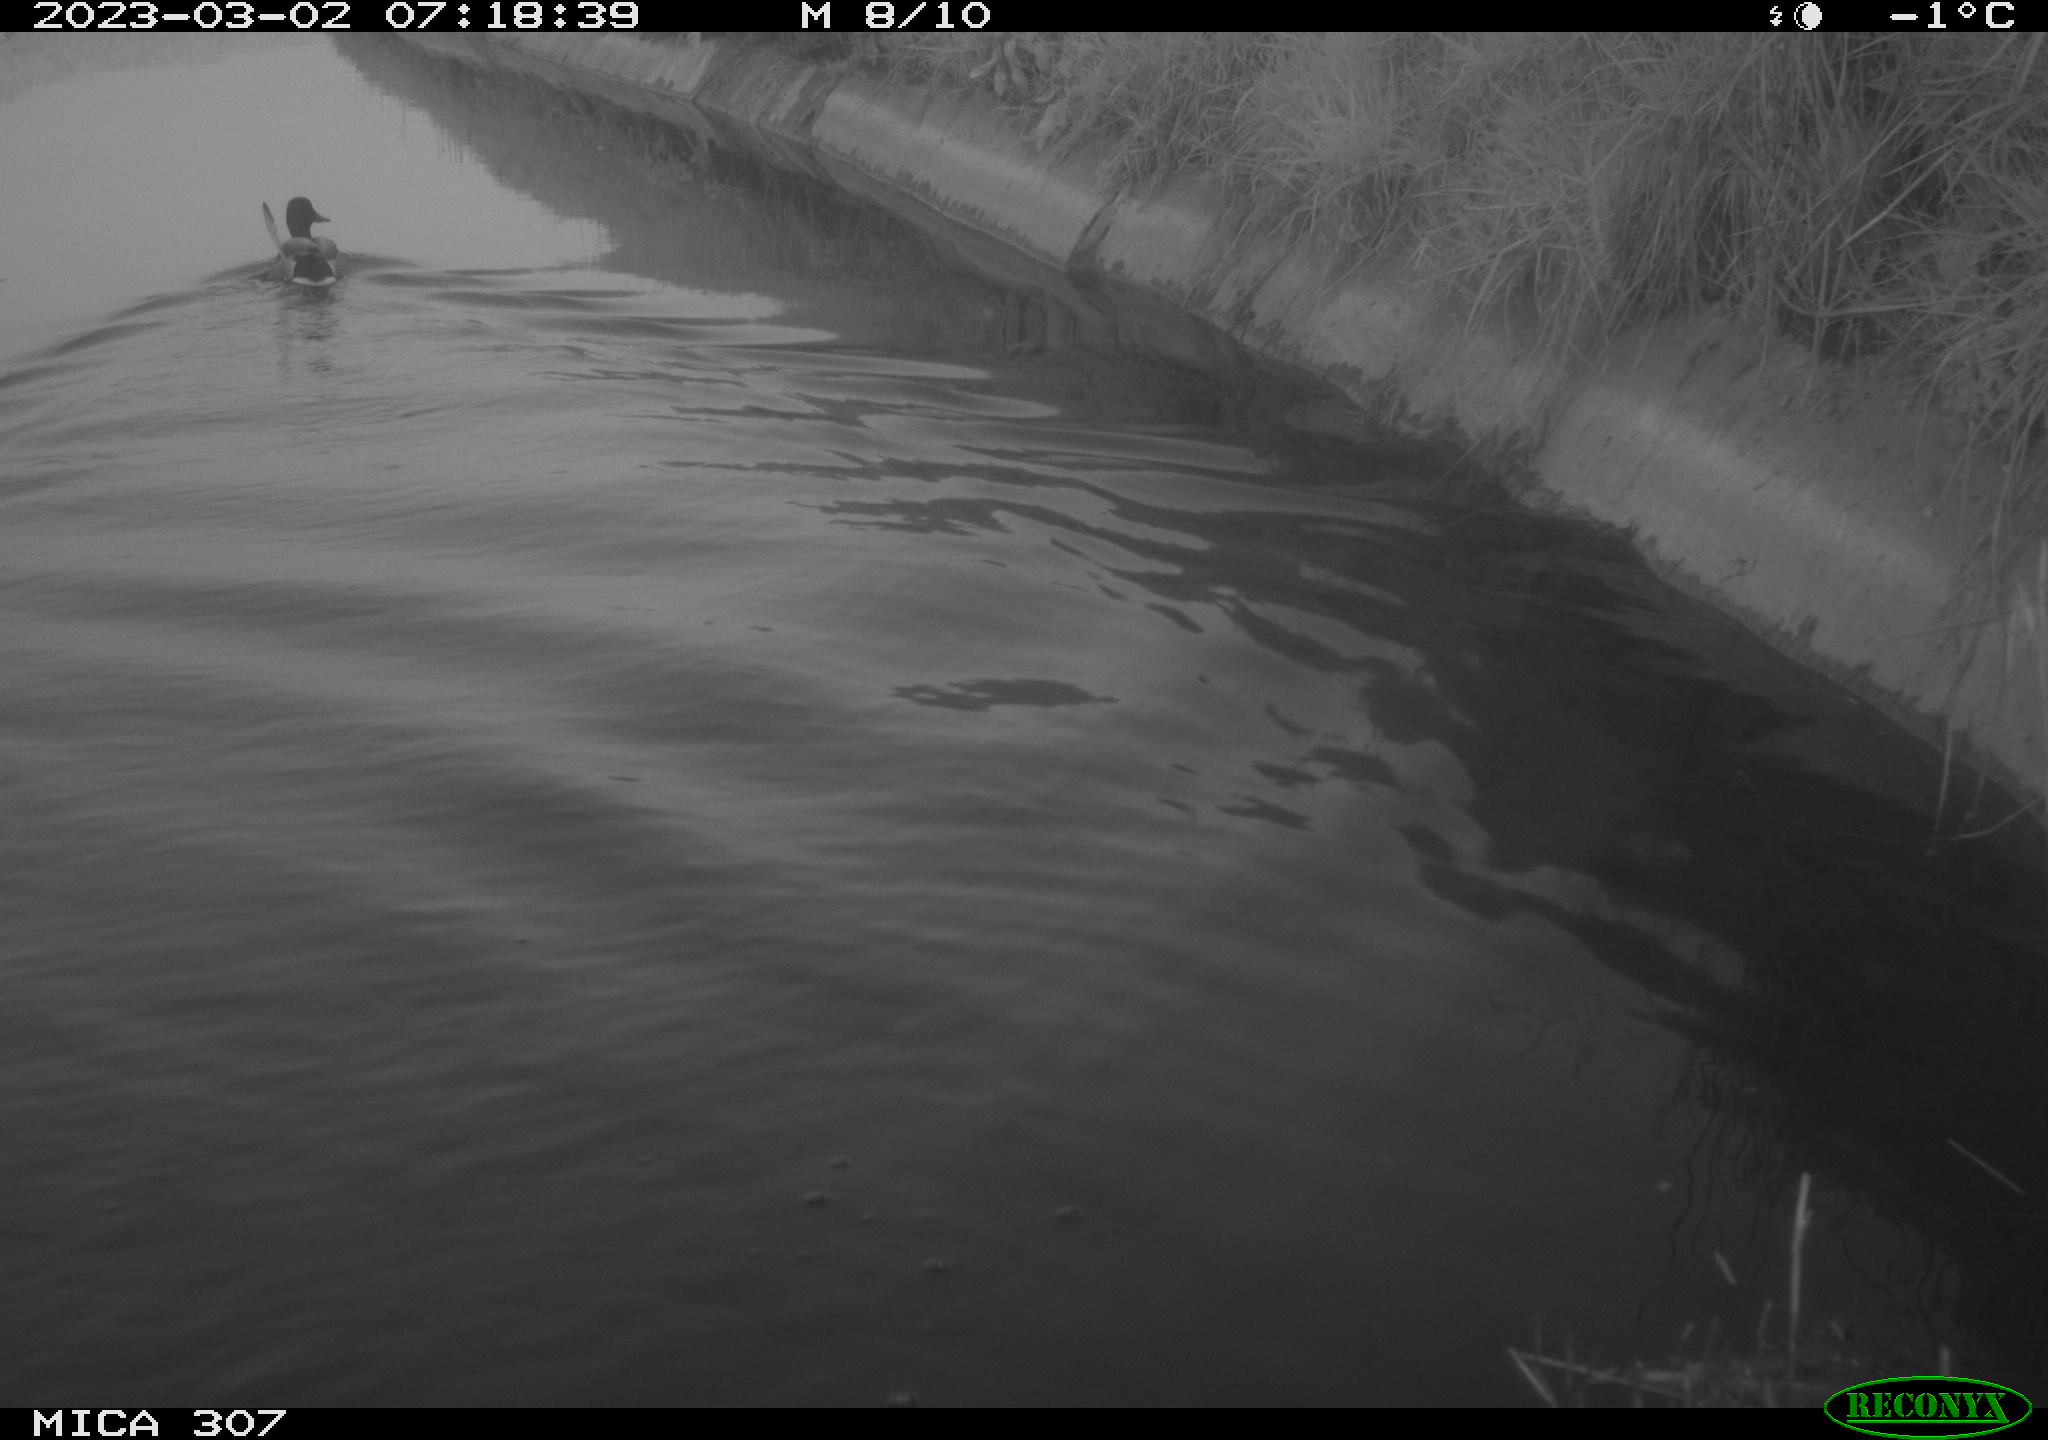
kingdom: Animalia
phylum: Chordata
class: Aves
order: Anseriformes
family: Anatidae
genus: Anas
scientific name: Anas
